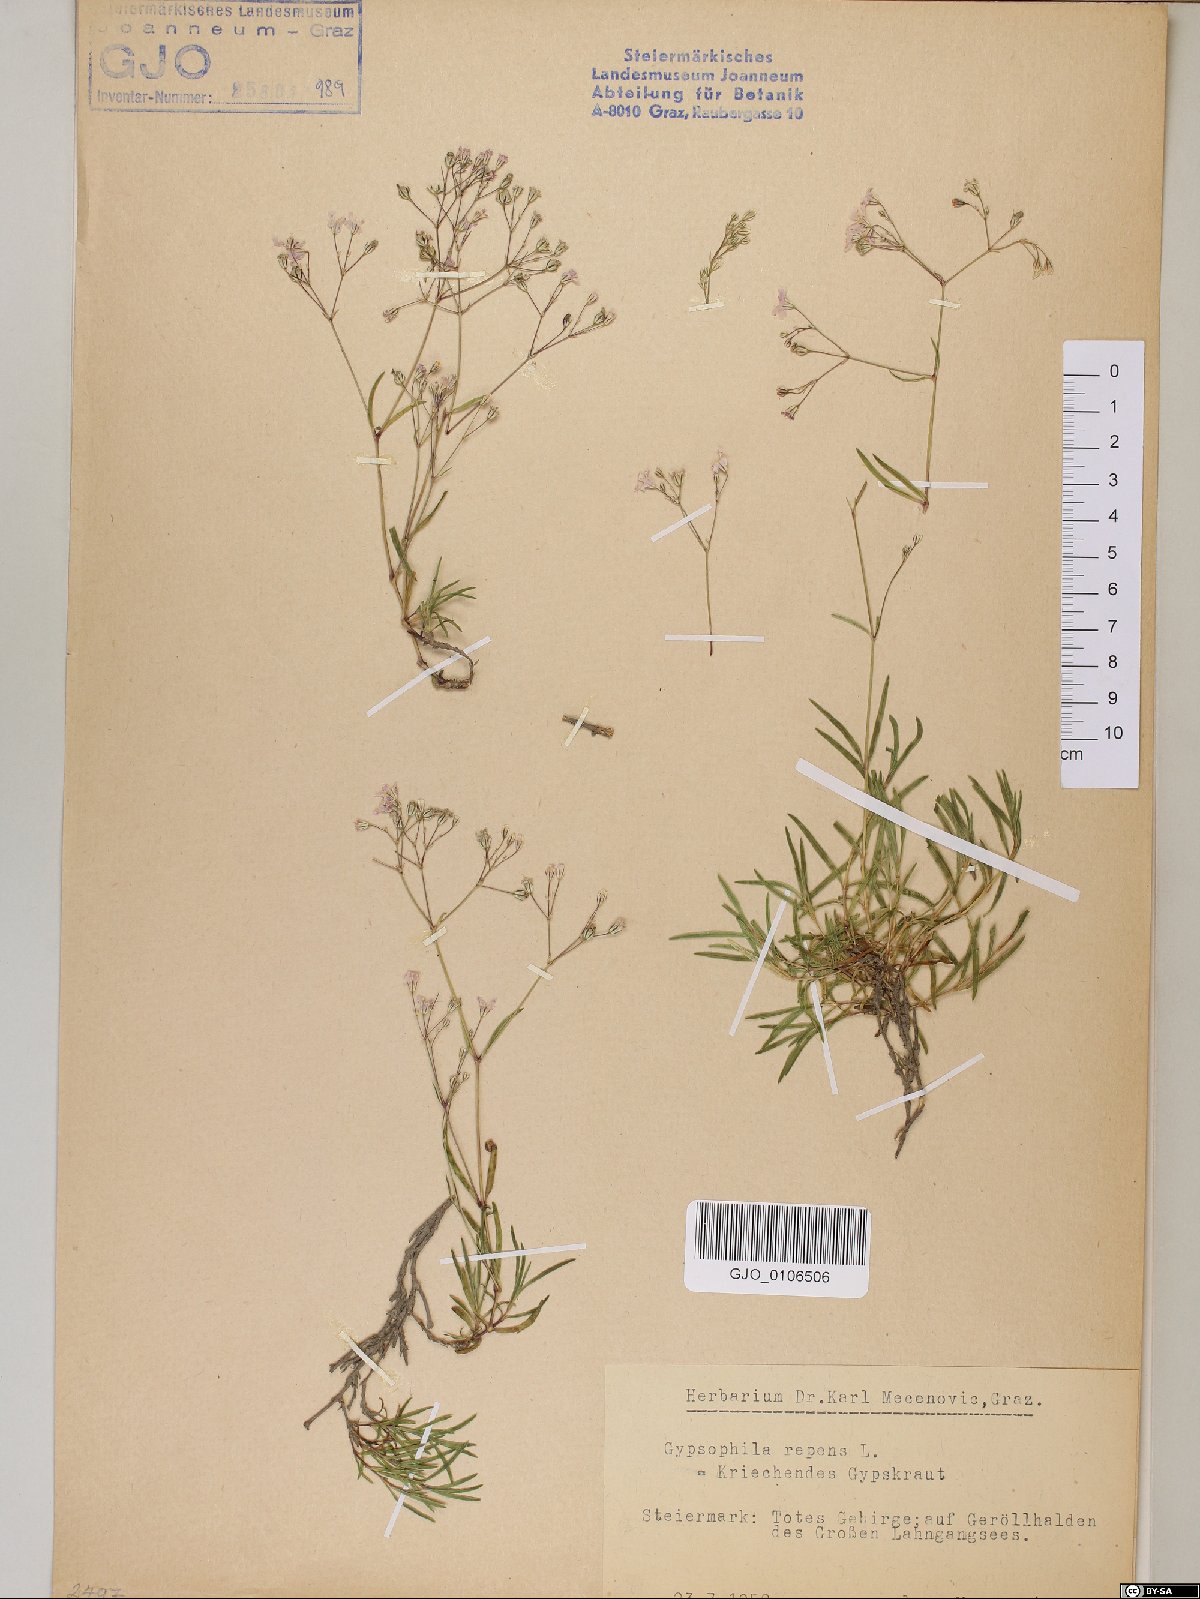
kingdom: Plantae
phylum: Tracheophyta
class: Magnoliopsida
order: Caryophyllales
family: Caryophyllaceae
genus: Gypsophila
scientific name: Gypsophila repens
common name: Creeping baby's-breath
